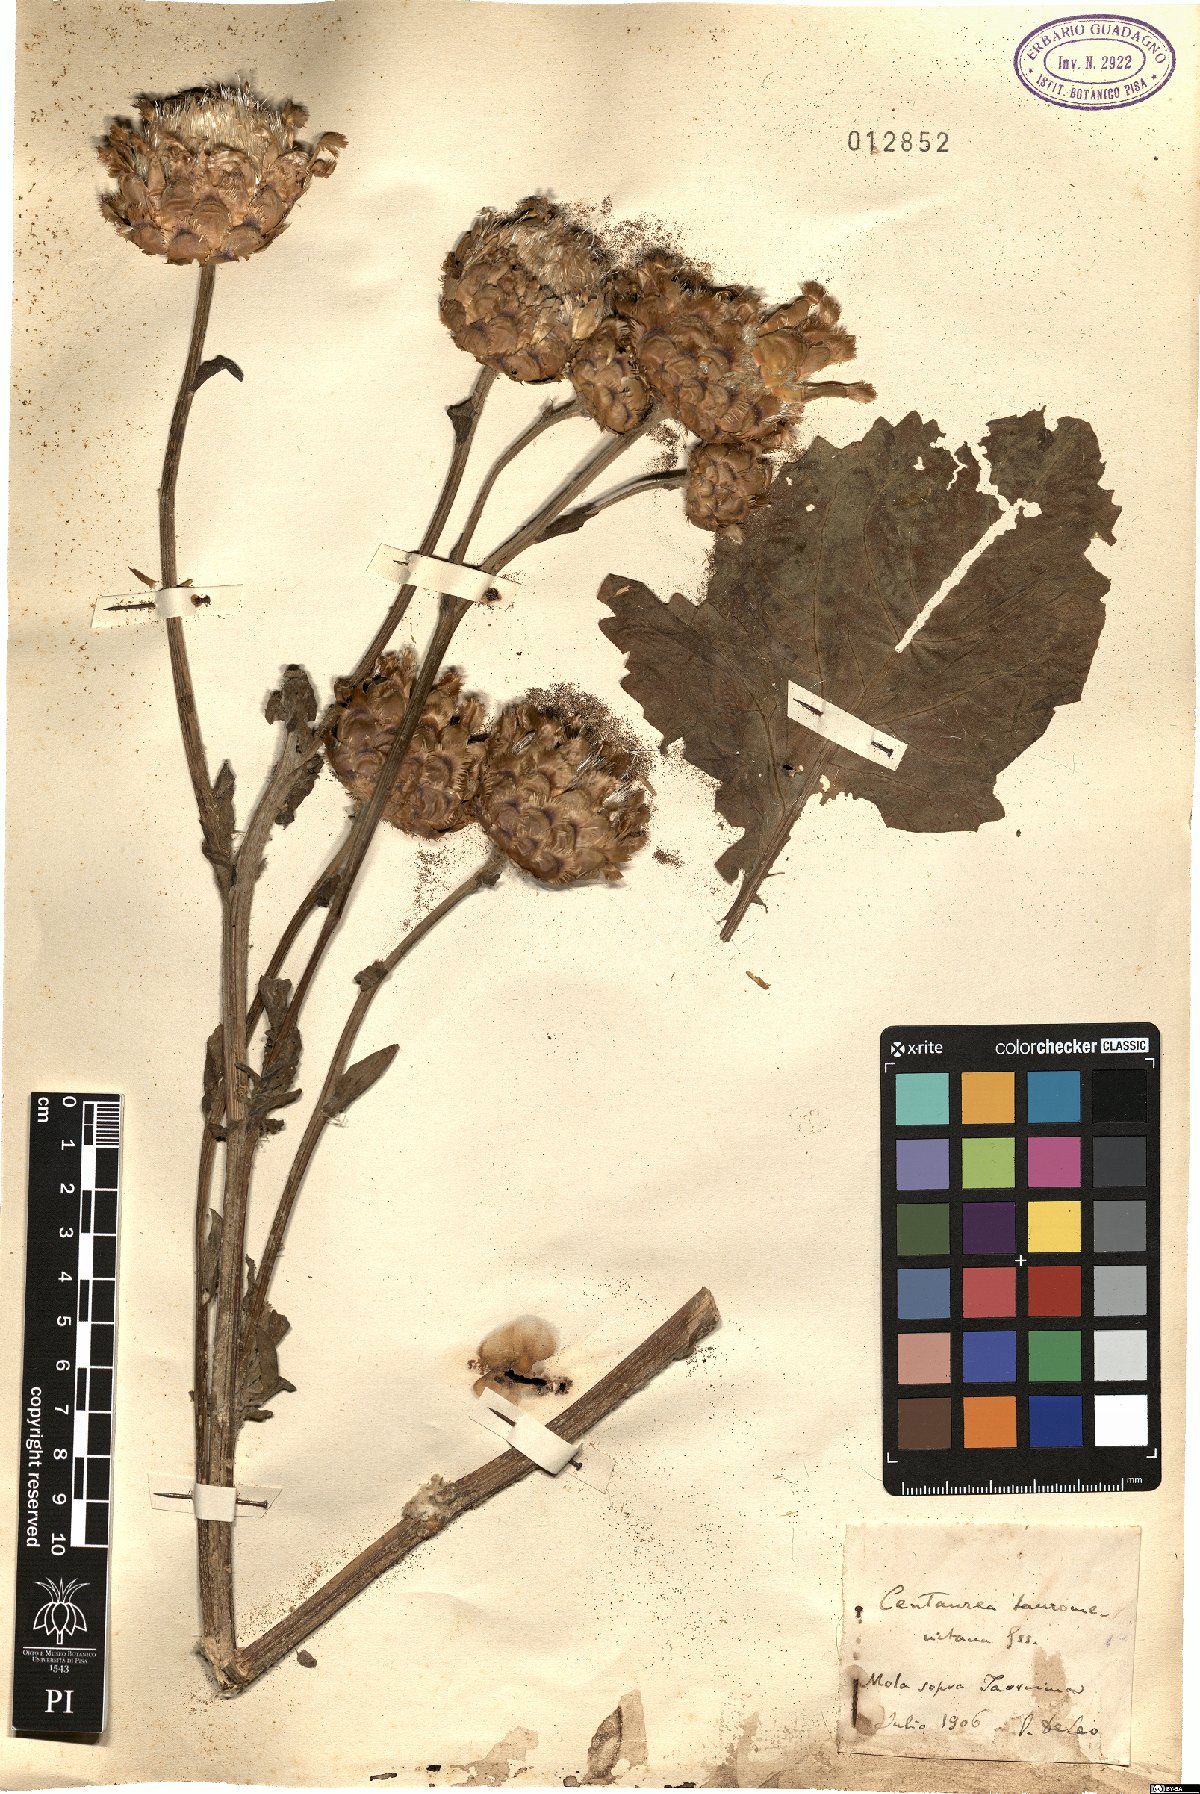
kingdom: Plantae
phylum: Tracheophyta
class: Magnoliopsida
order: Asterales
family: Asteraceae
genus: Centaurea
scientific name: Centaurea tauromenitana
